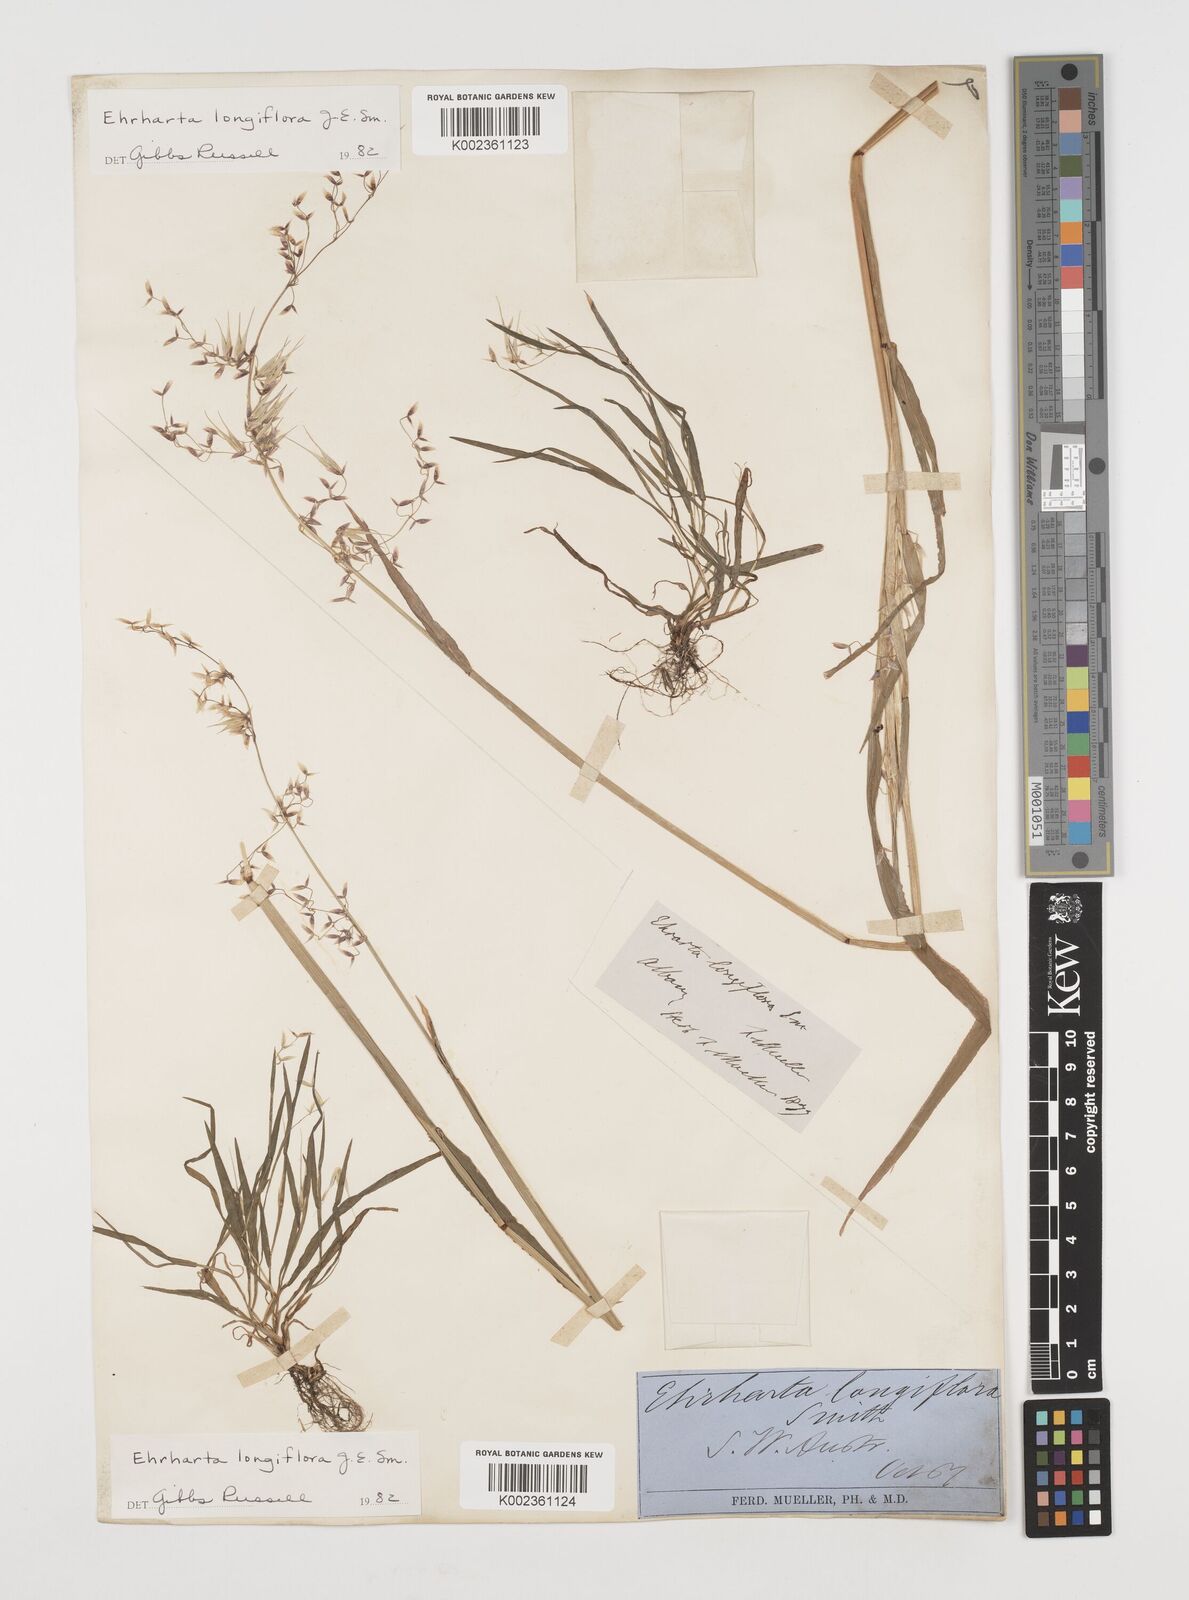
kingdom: Plantae
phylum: Tracheophyta
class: Liliopsida
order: Poales
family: Poaceae
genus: Ehrharta
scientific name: Ehrharta longiflora
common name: Longflowered veldtgrass
